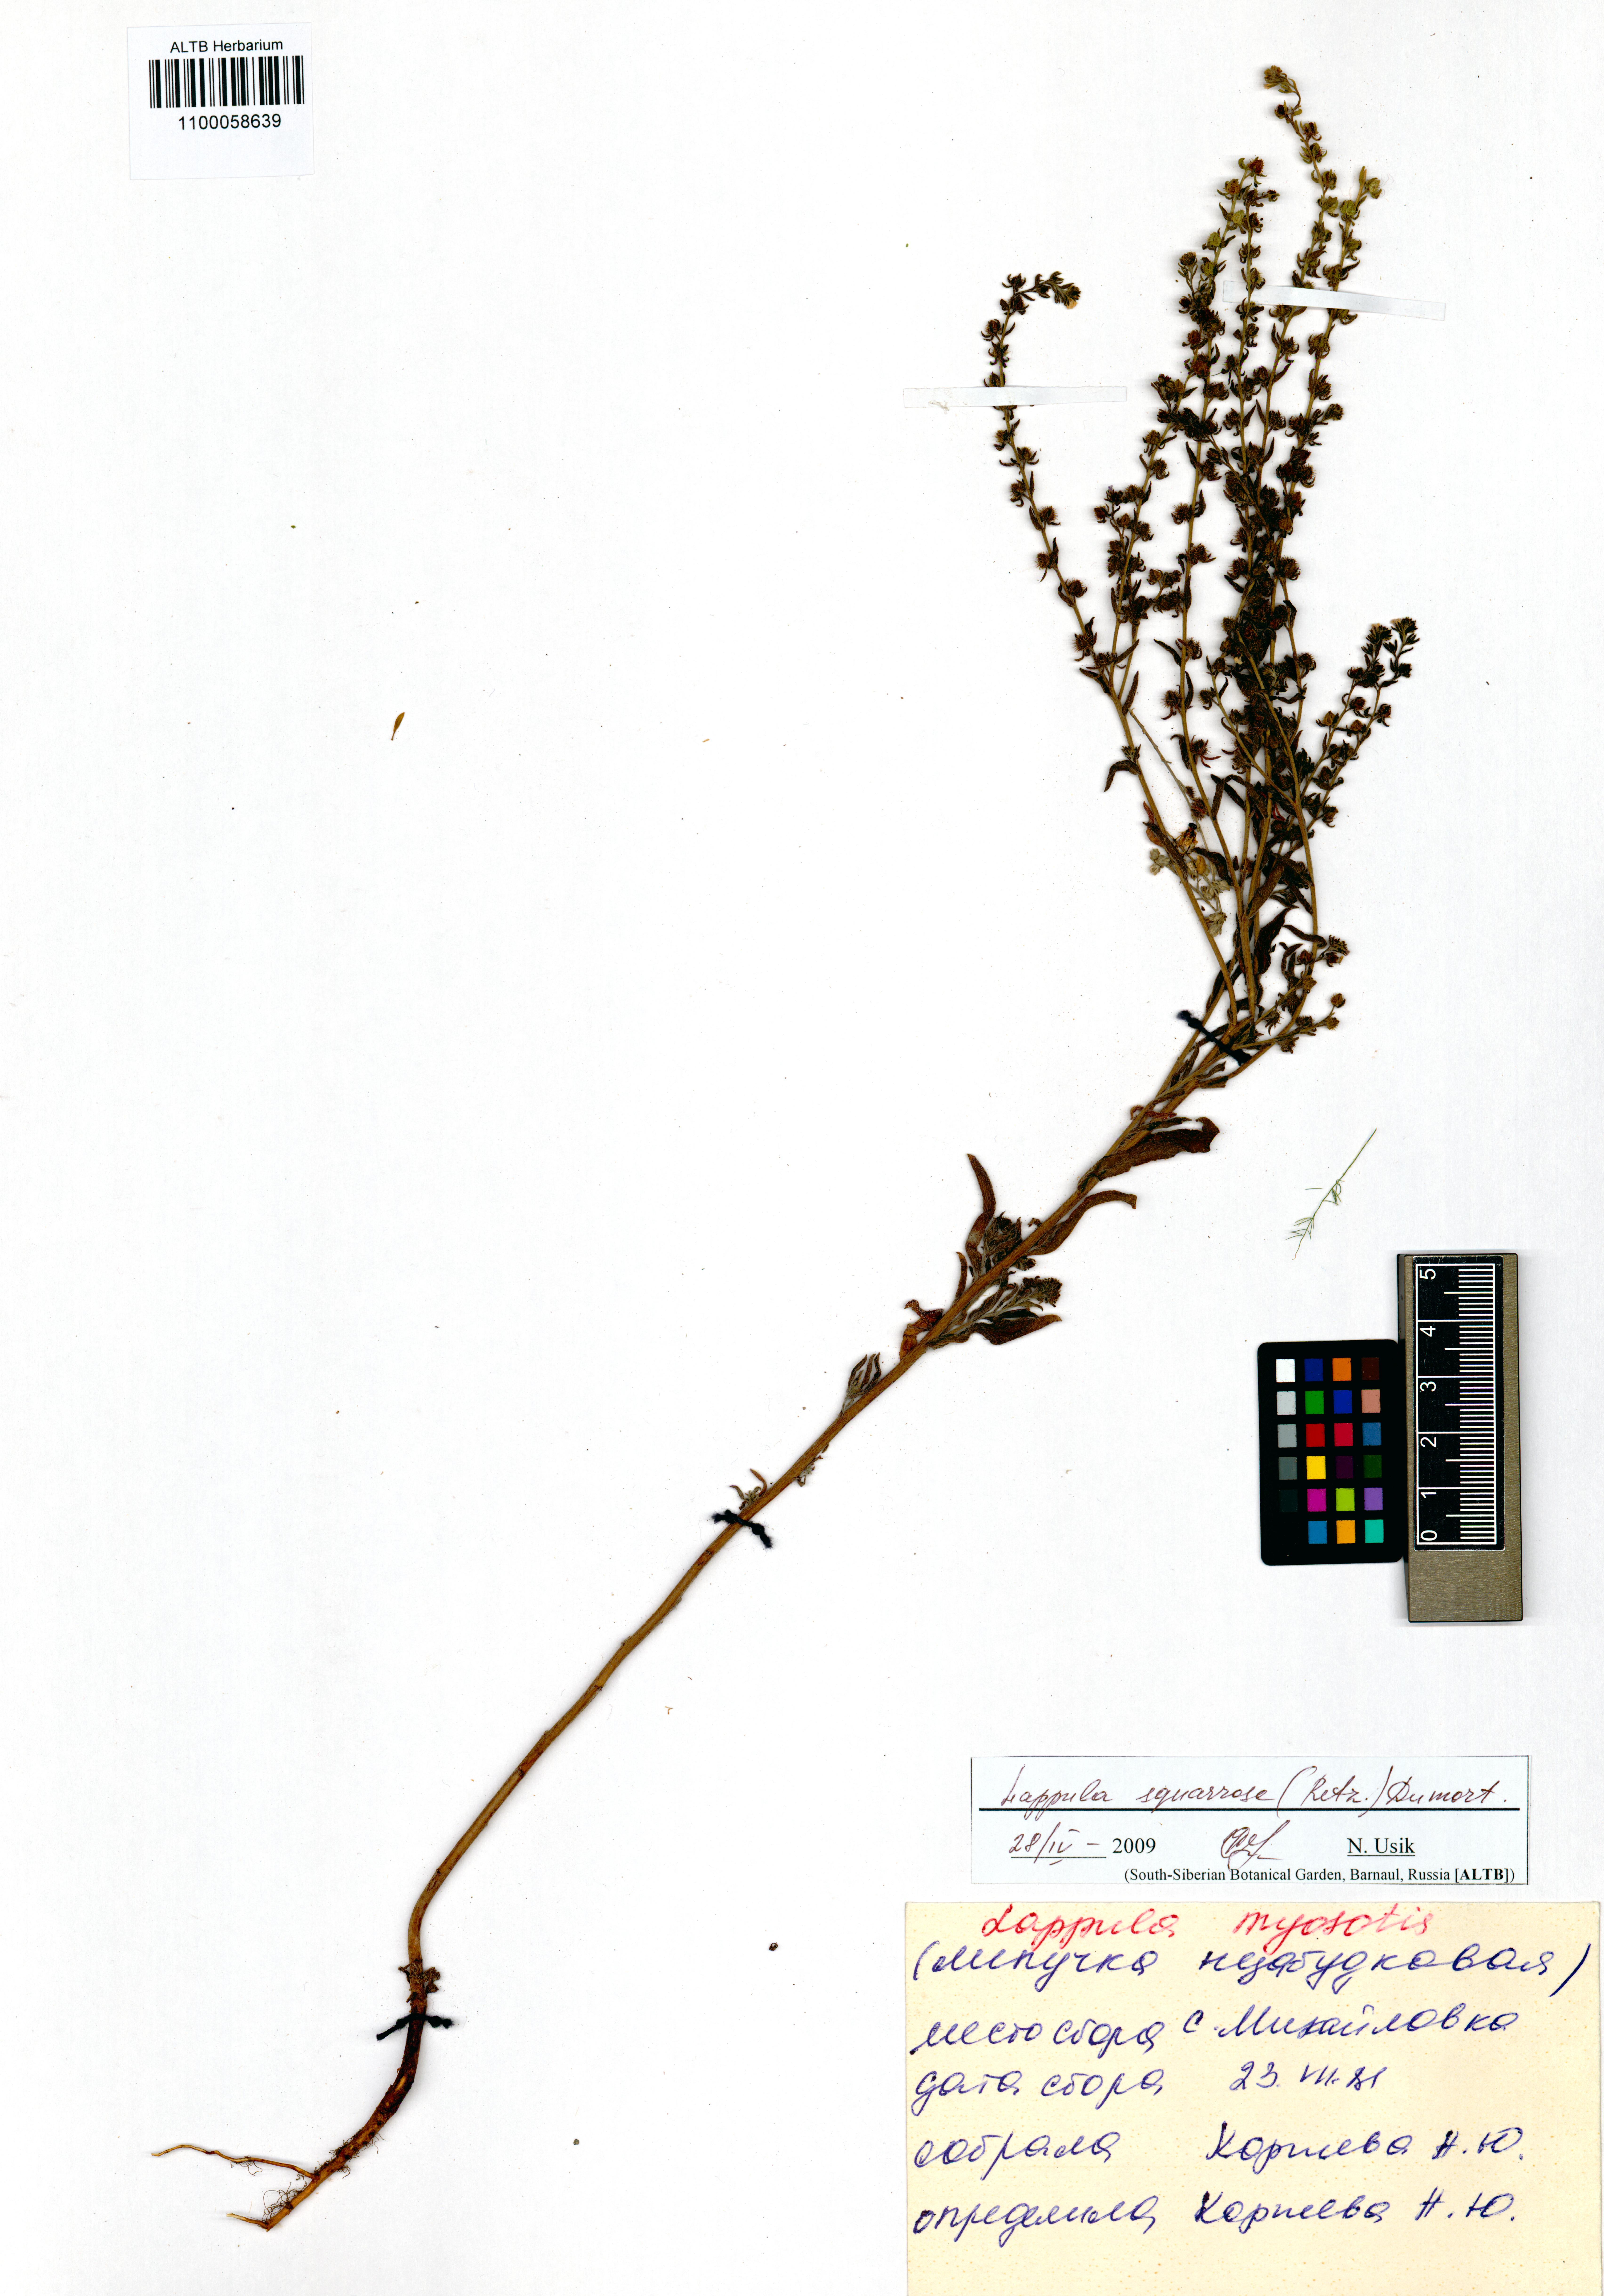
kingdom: Plantae
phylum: Tracheophyta
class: Magnoliopsida
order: Boraginales
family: Boraginaceae
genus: Lappula
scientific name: Lappula squarrosa
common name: European stickseed
